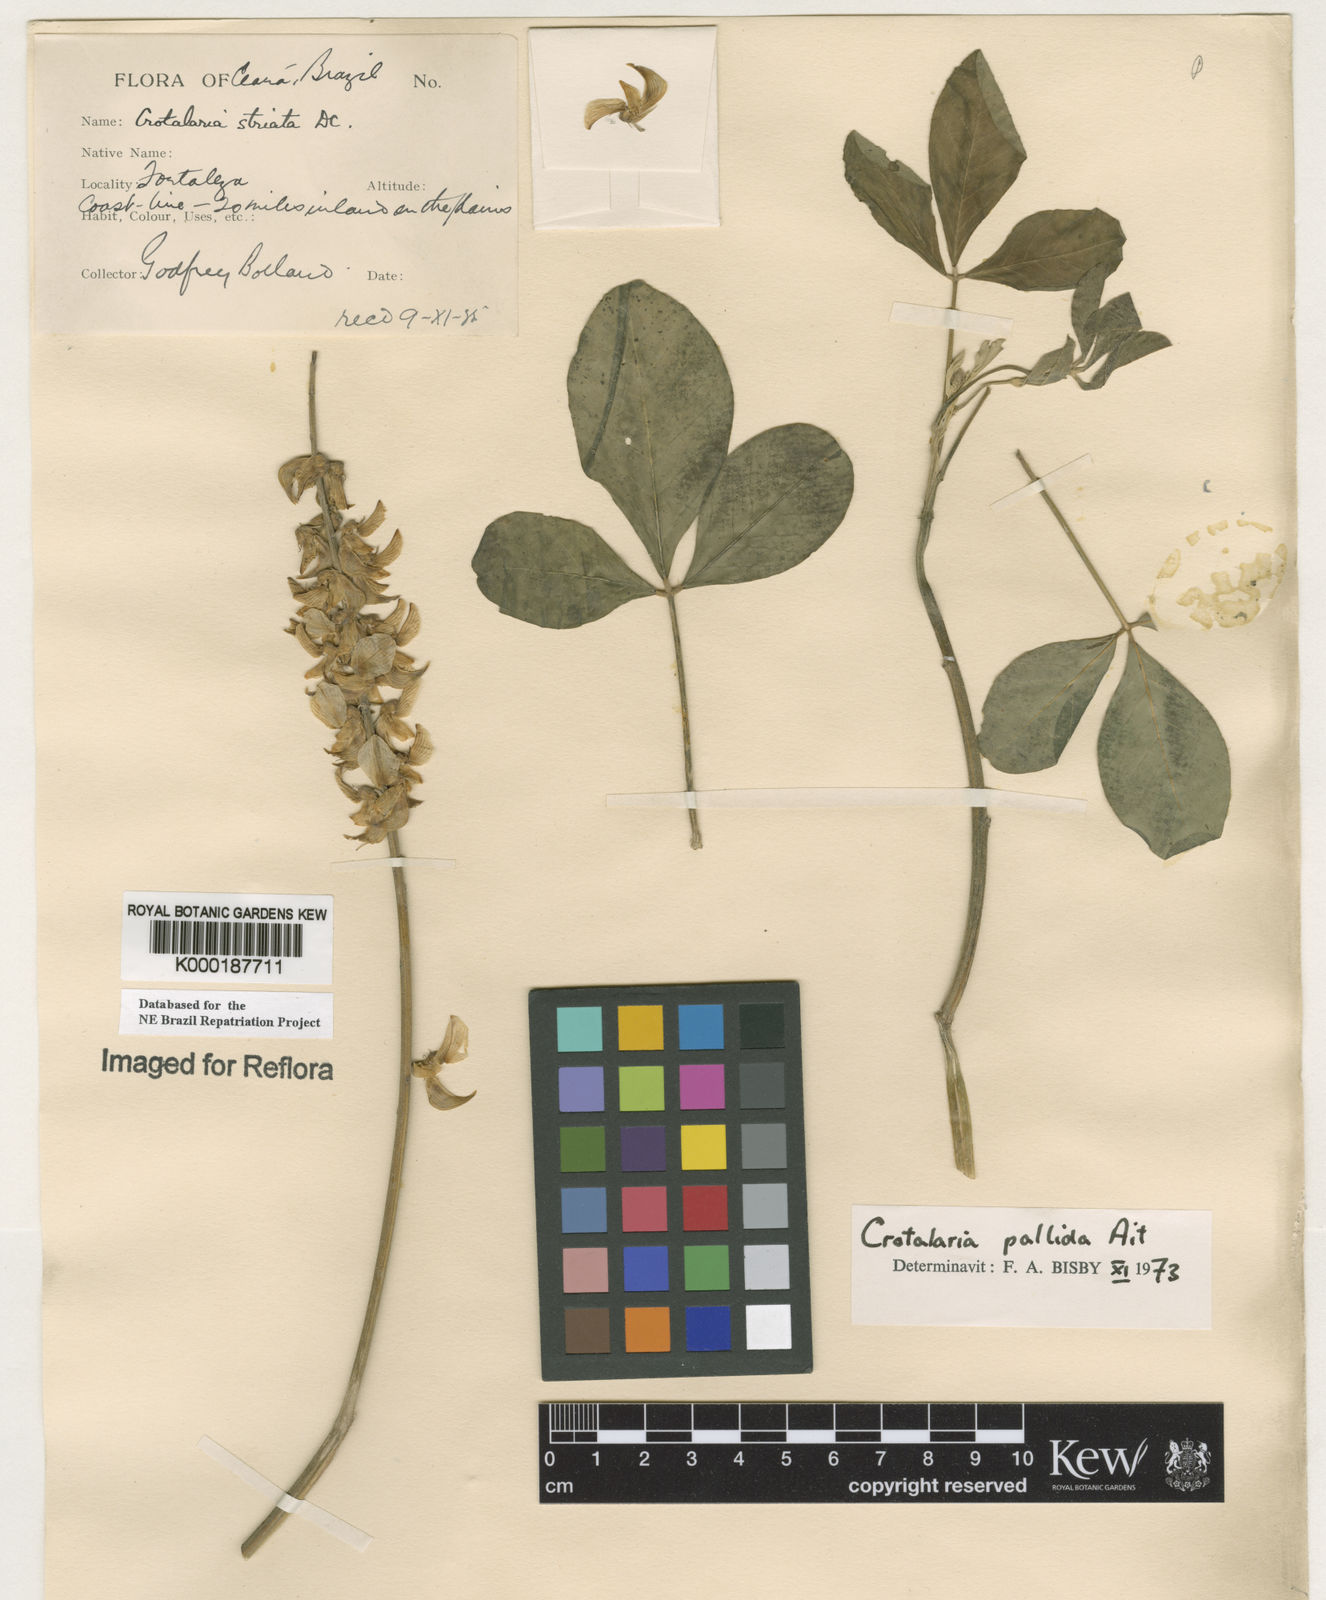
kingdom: Plantae
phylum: Tracheophyta
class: Magnoliopsida
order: Fabales
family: Fabaceae
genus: Crotalaria
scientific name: Crotalaria pallida
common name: Smooth rattlebox
